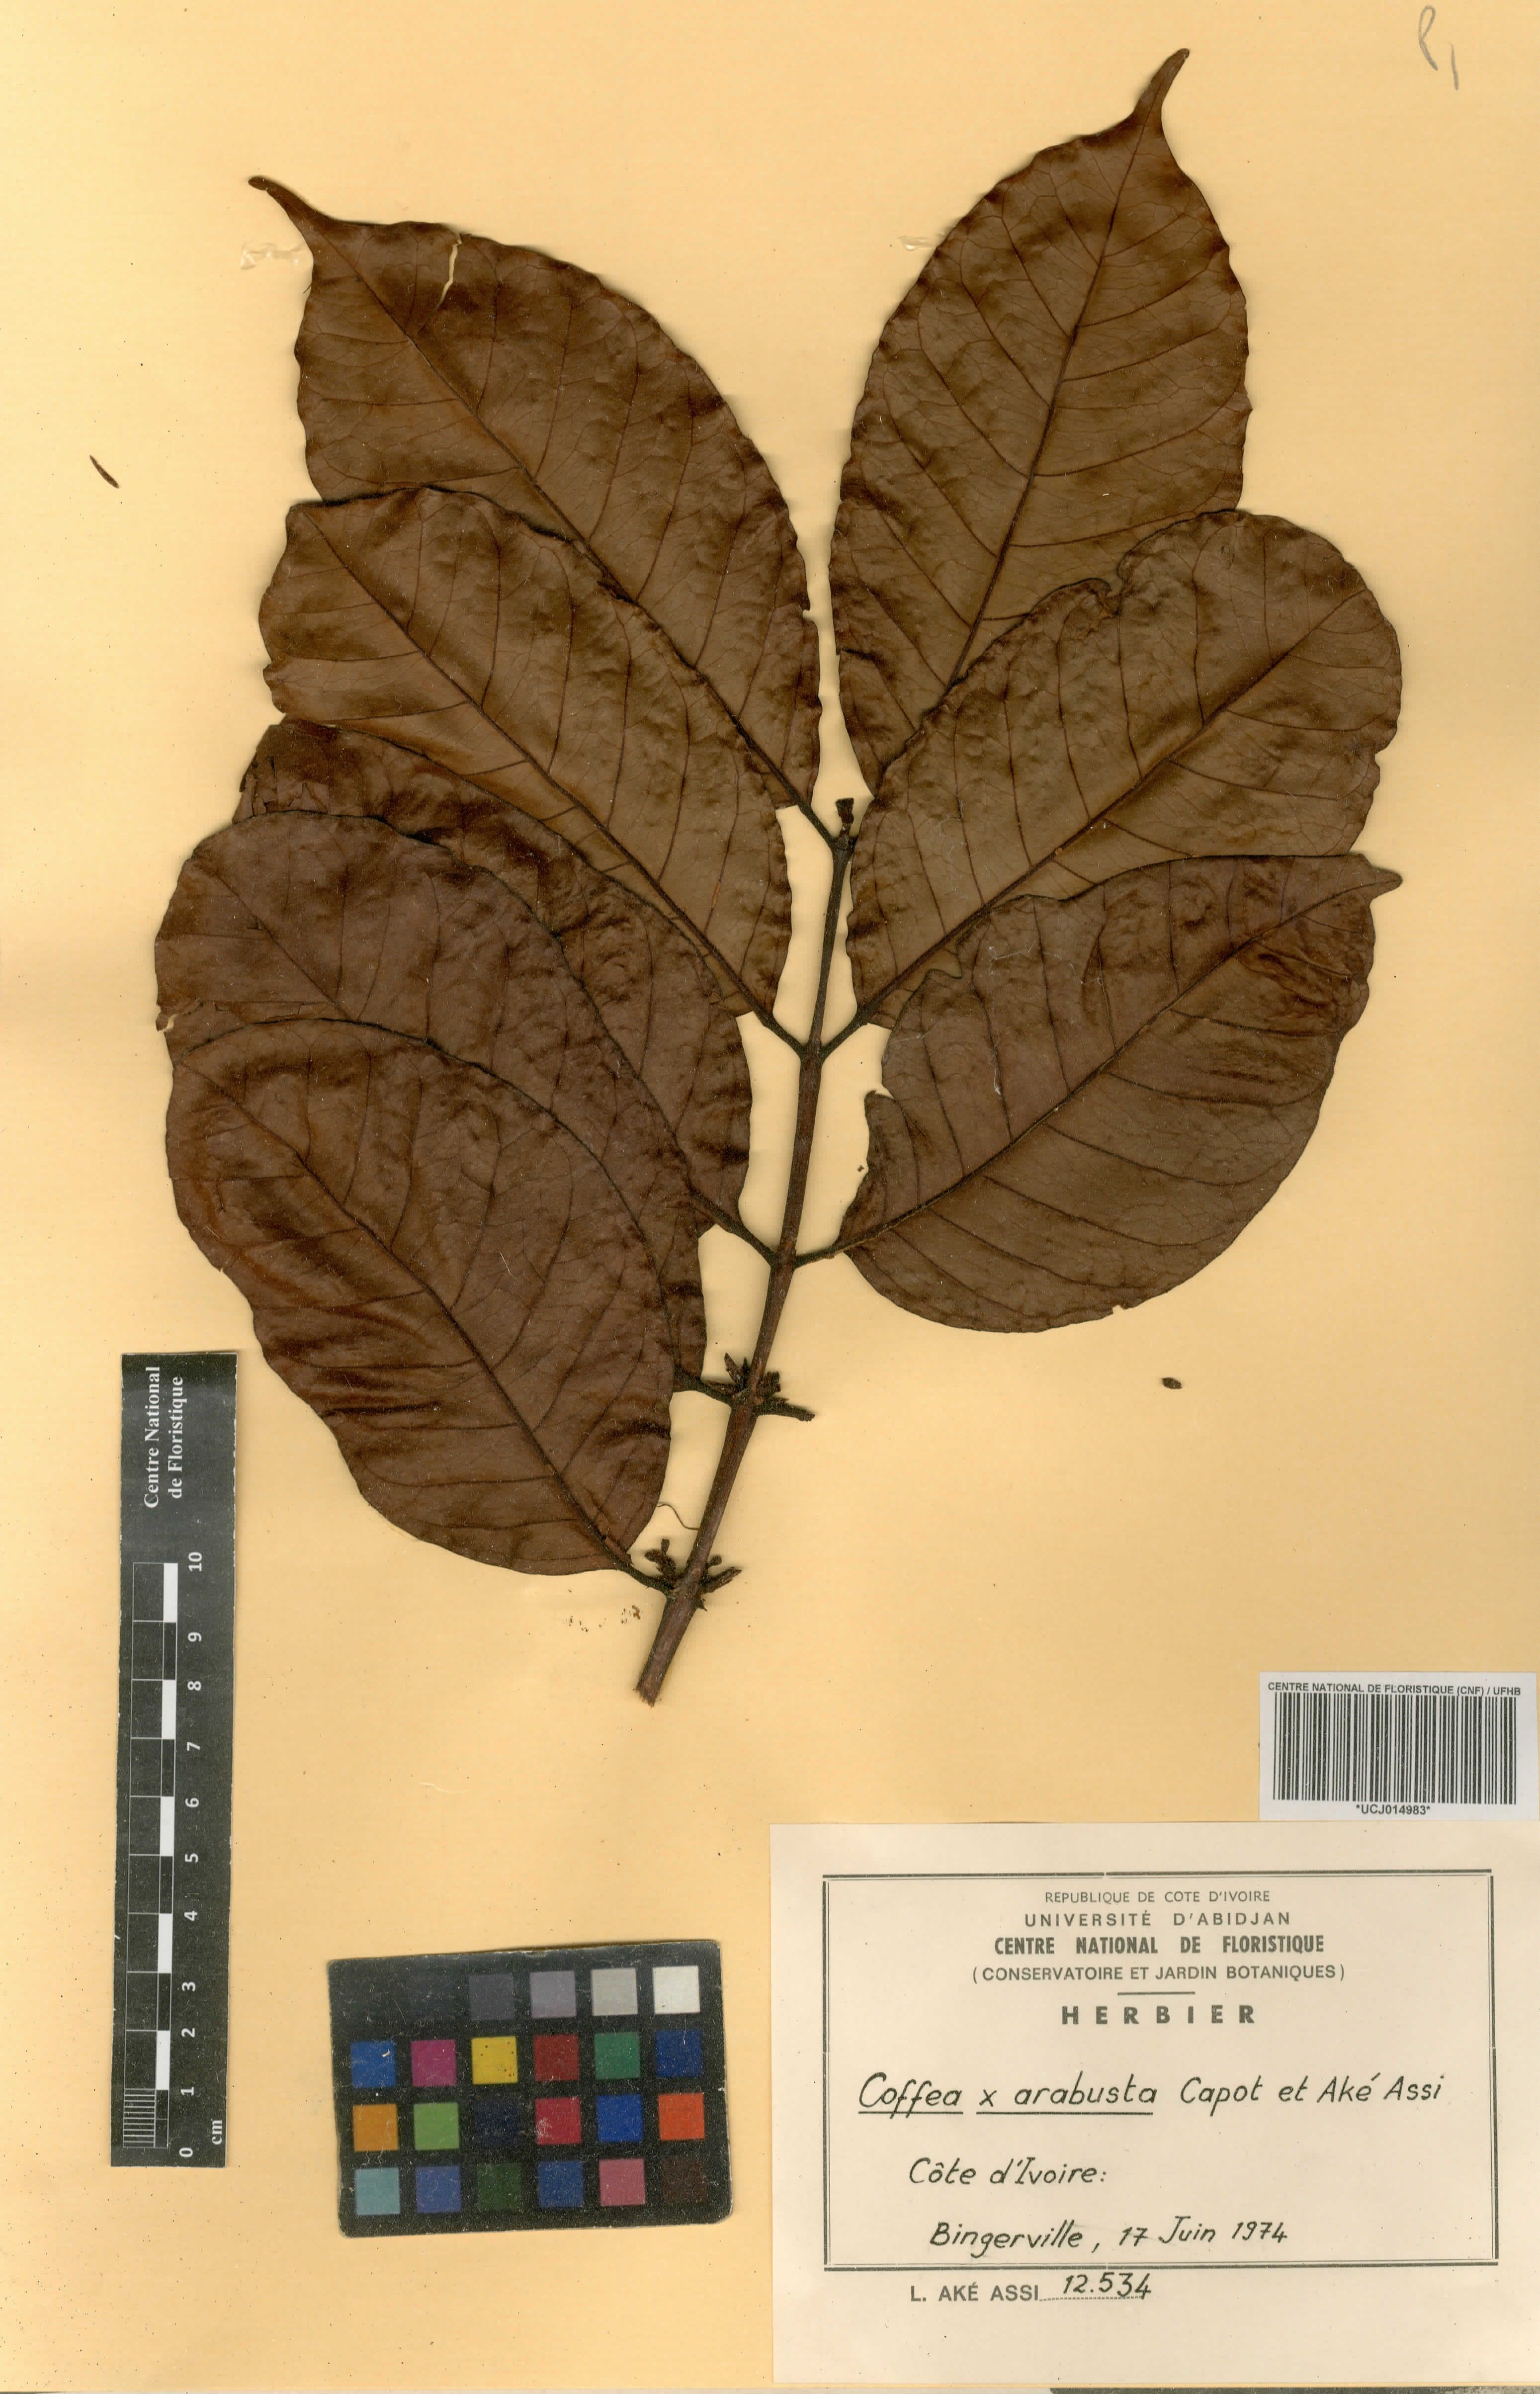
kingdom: Plantae
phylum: Tracheophyta
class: Magnoliopsida
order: Gentianales
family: Rubiaceae
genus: Coffea
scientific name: Coffea arabusta
